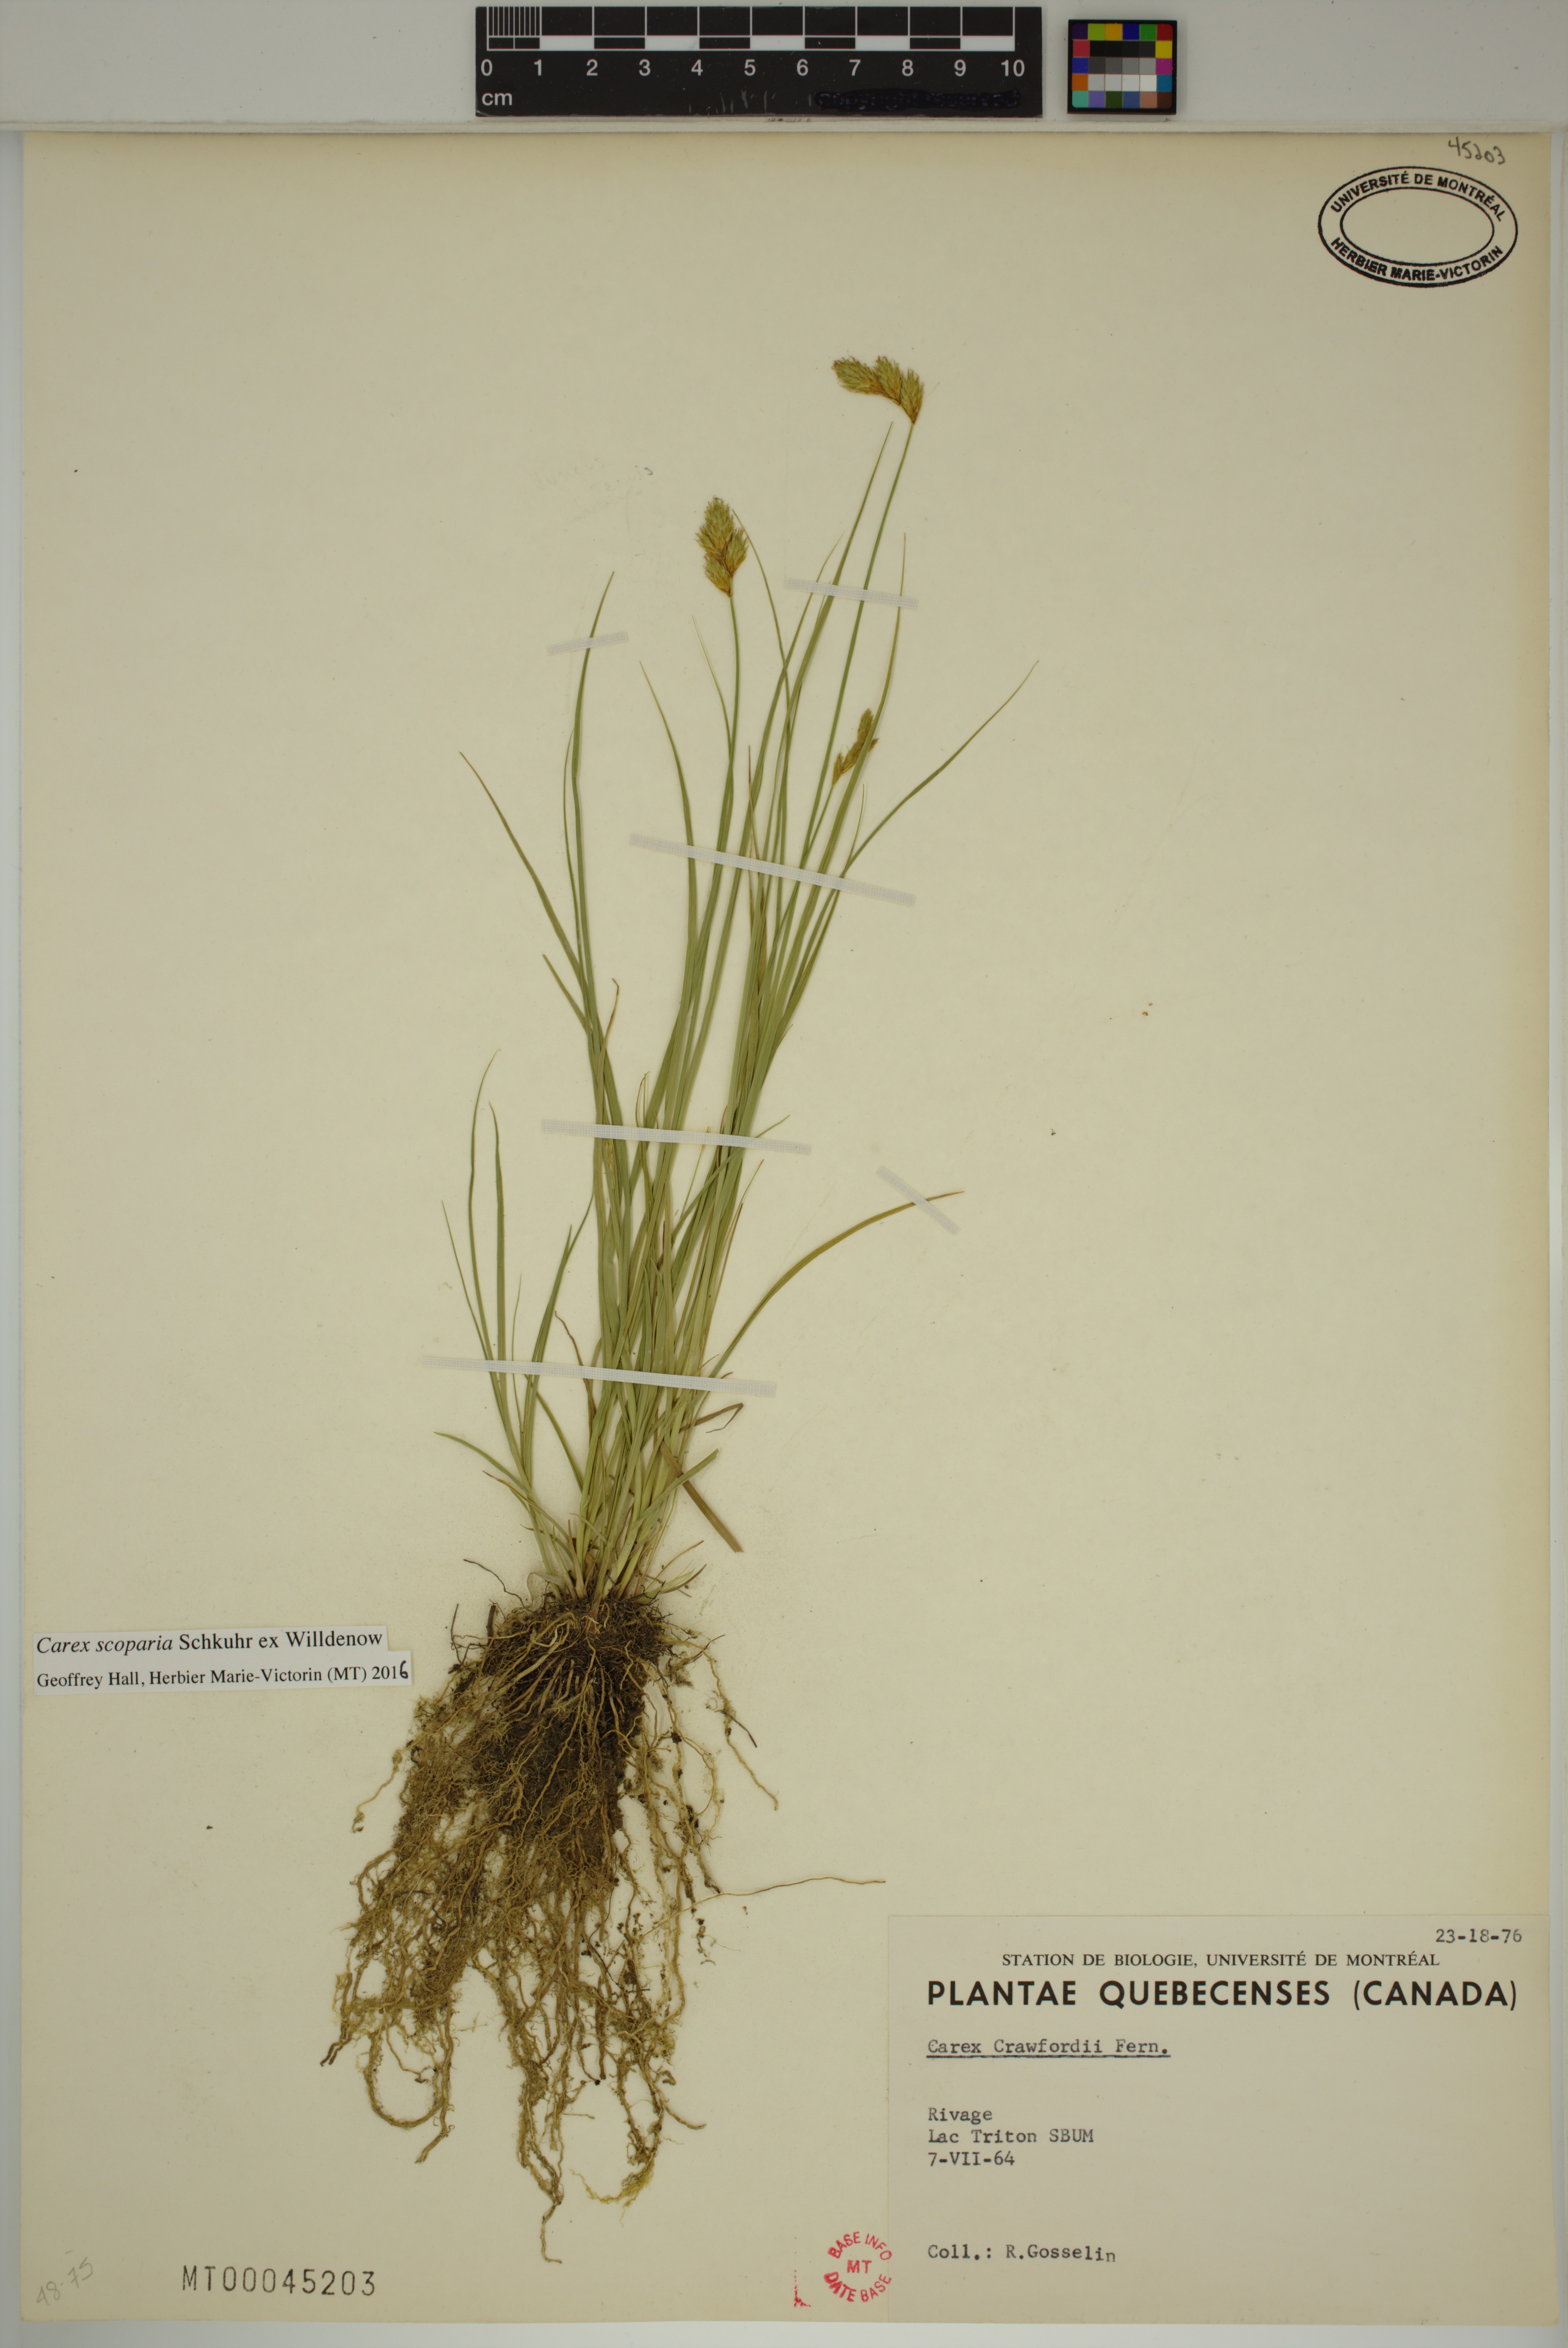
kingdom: Plantae
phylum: Tracheophyta
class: Liliopsida
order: Poales
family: Cyperaceae
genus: Carex
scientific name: Carex scoparia
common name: Broom sedge
